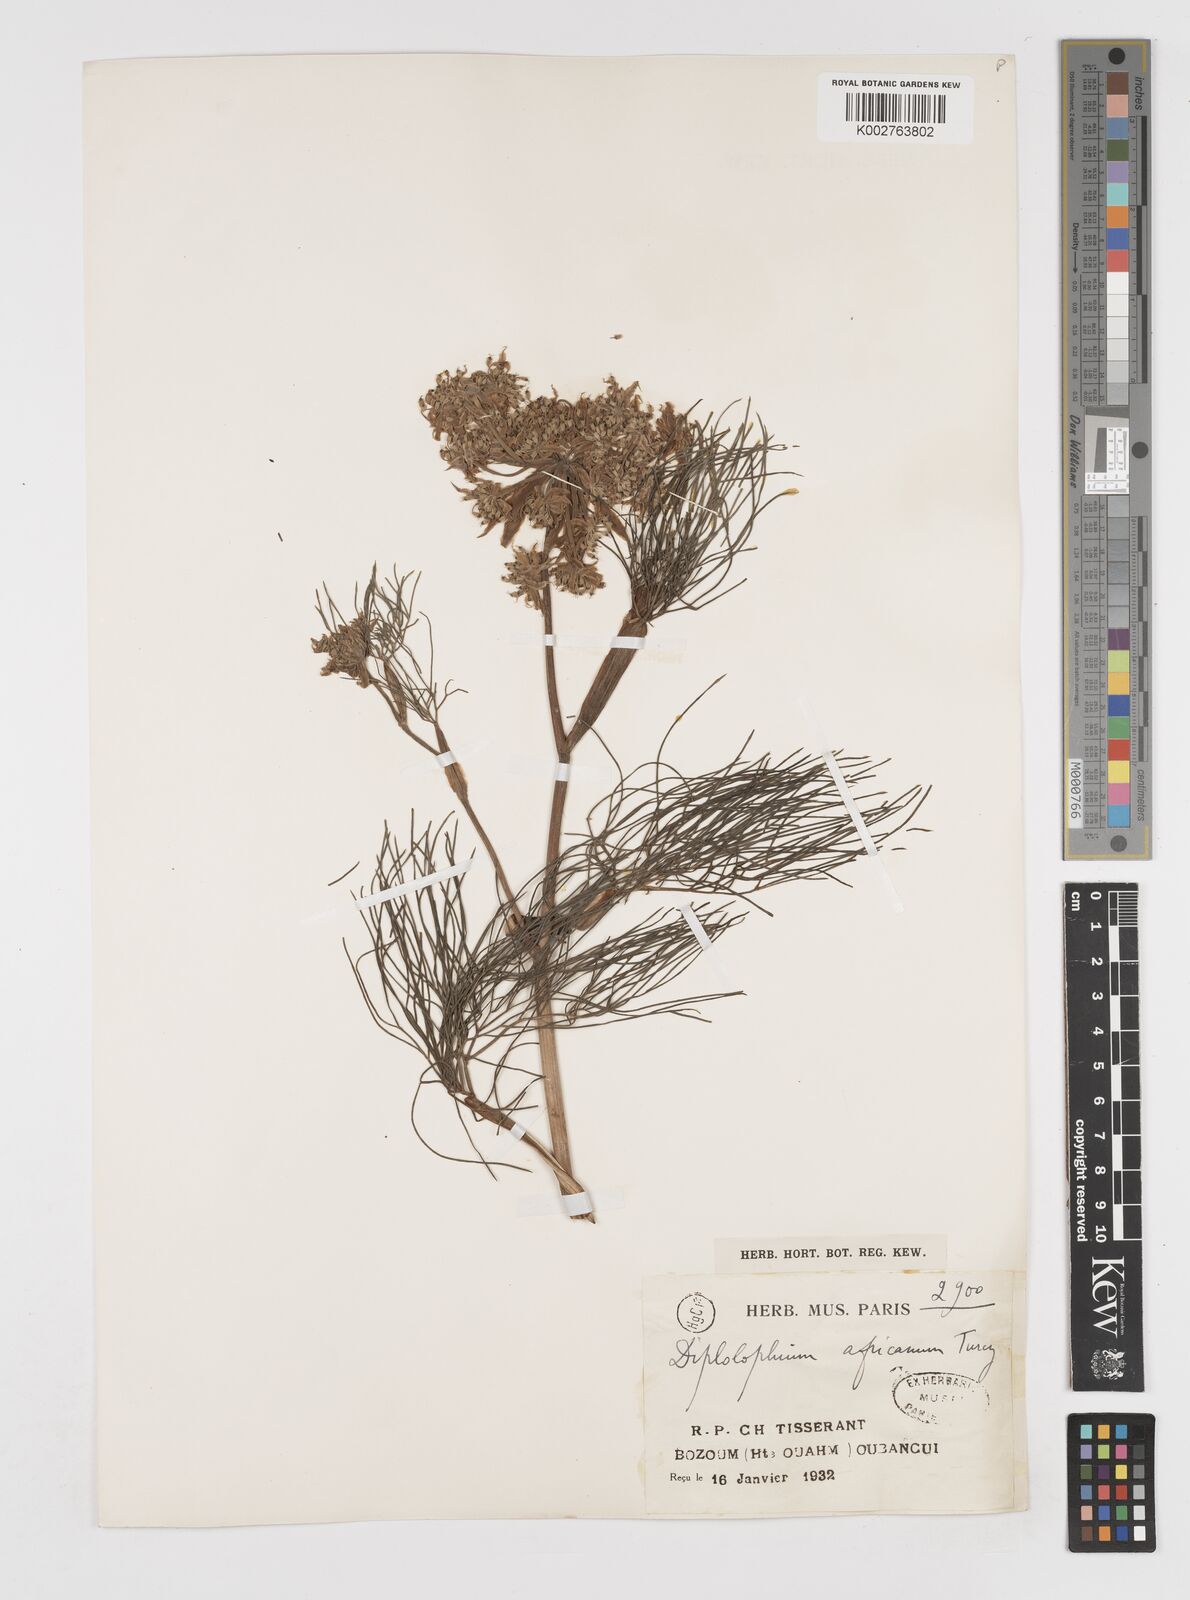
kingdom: Plantae
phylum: Tracheophyta
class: Magnoliopsida
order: Apiales
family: Apiaceae
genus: Diplolophium
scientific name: Diplolophium africanum
